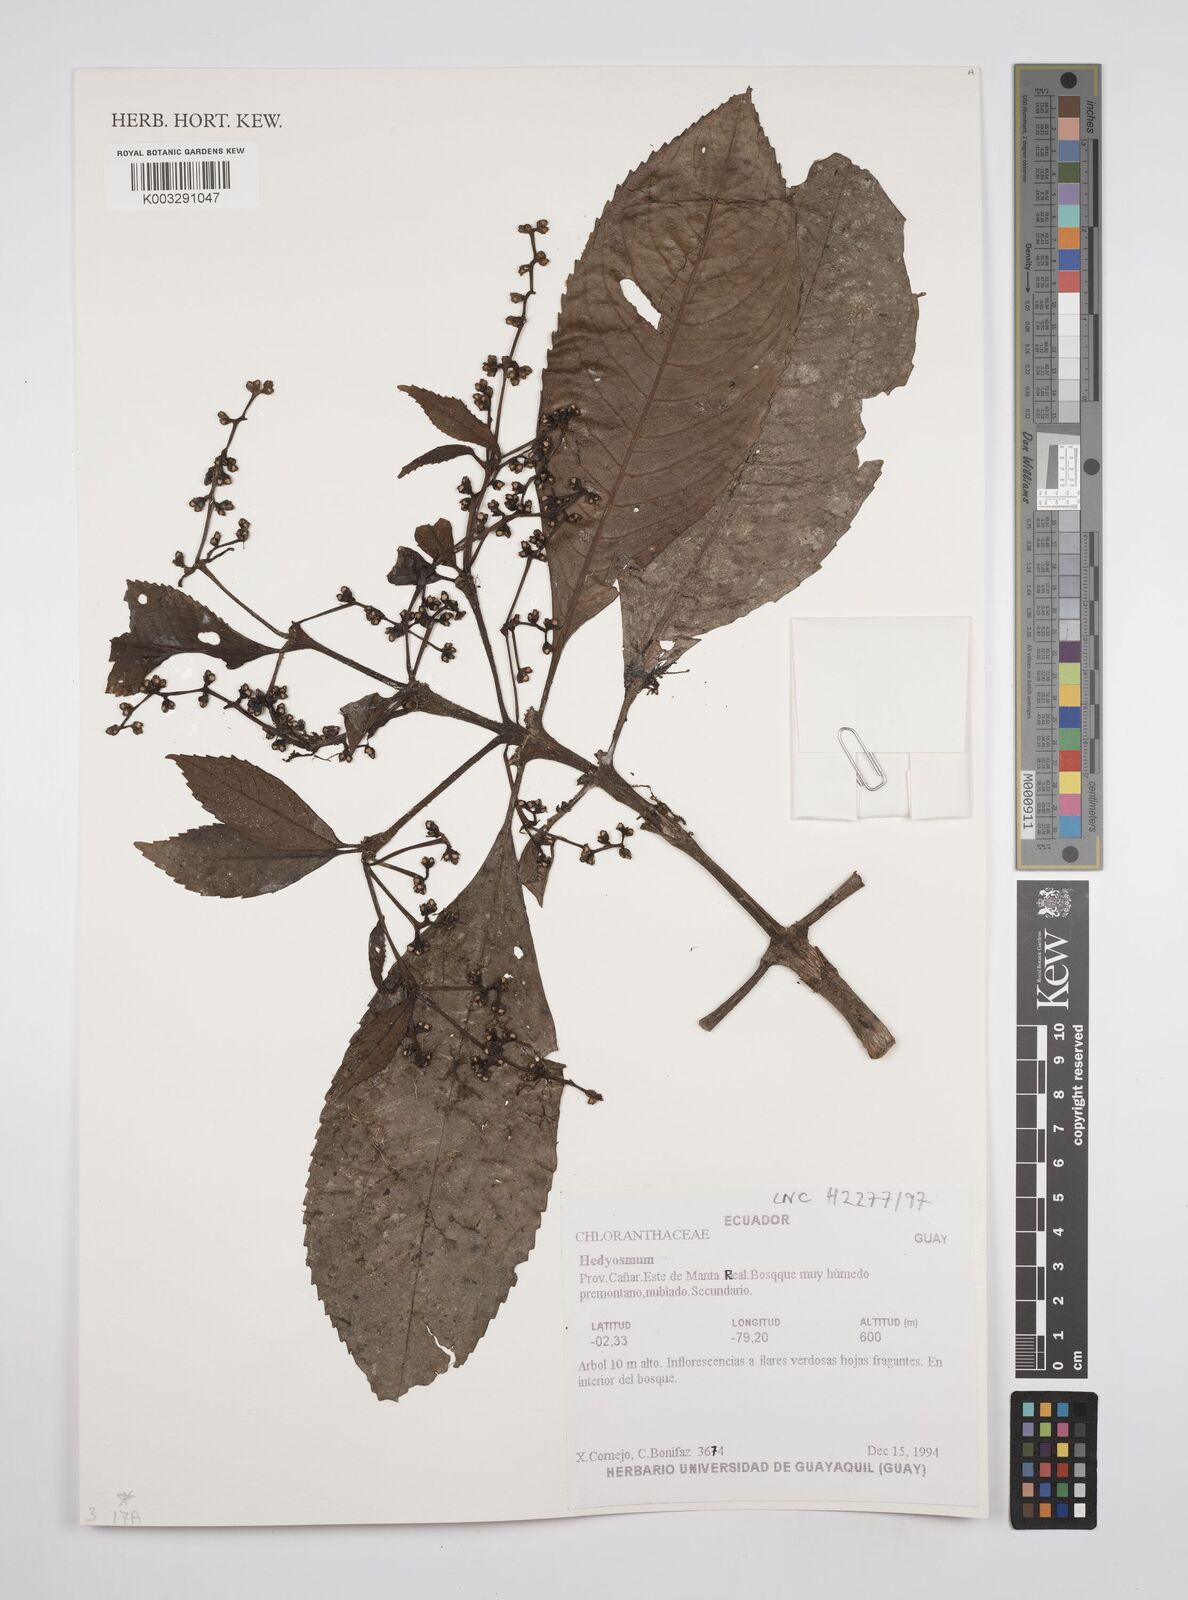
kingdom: Plantae
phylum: Tracheophyta
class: Magnoliopsida
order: Chloranthales
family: Chloranthaceae
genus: Hedyosmum
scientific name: Hedyosmum
